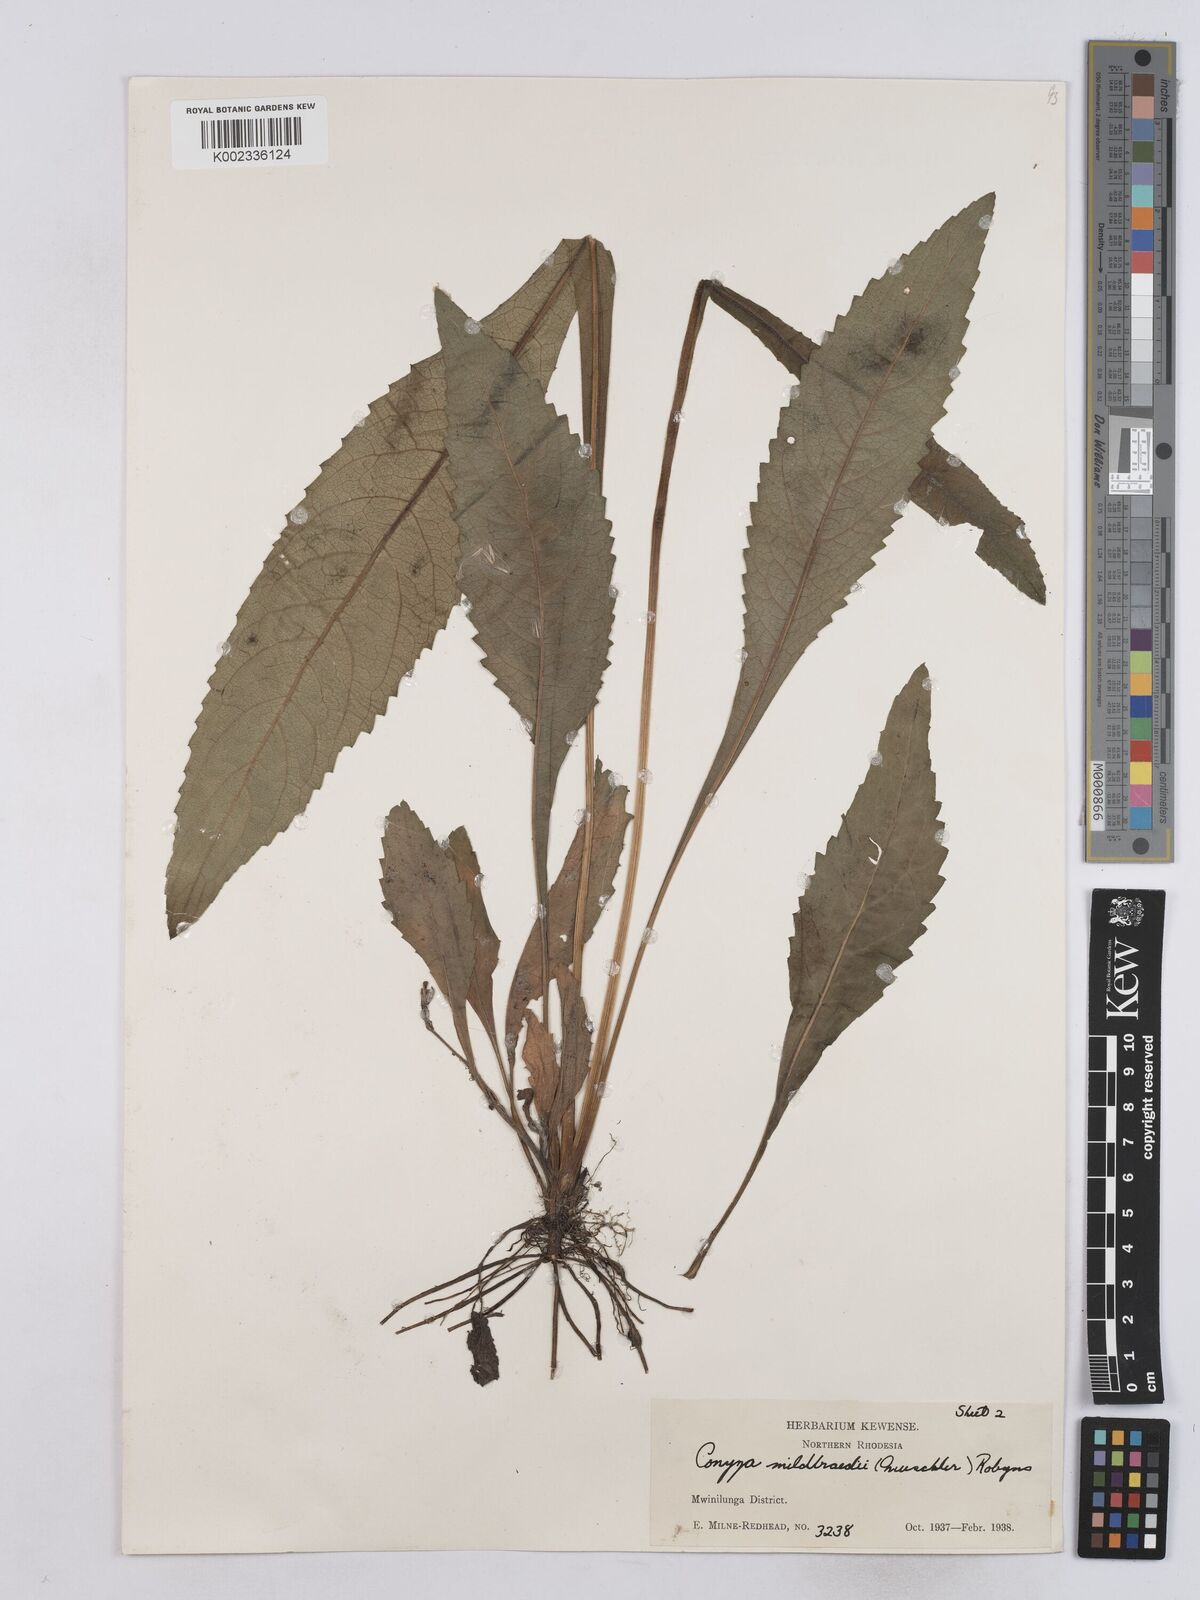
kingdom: Plantae
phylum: Tracheophyta
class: Magnoliopsida
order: Asterales
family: Asteraceae
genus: Conyza
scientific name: Conyza limosa
